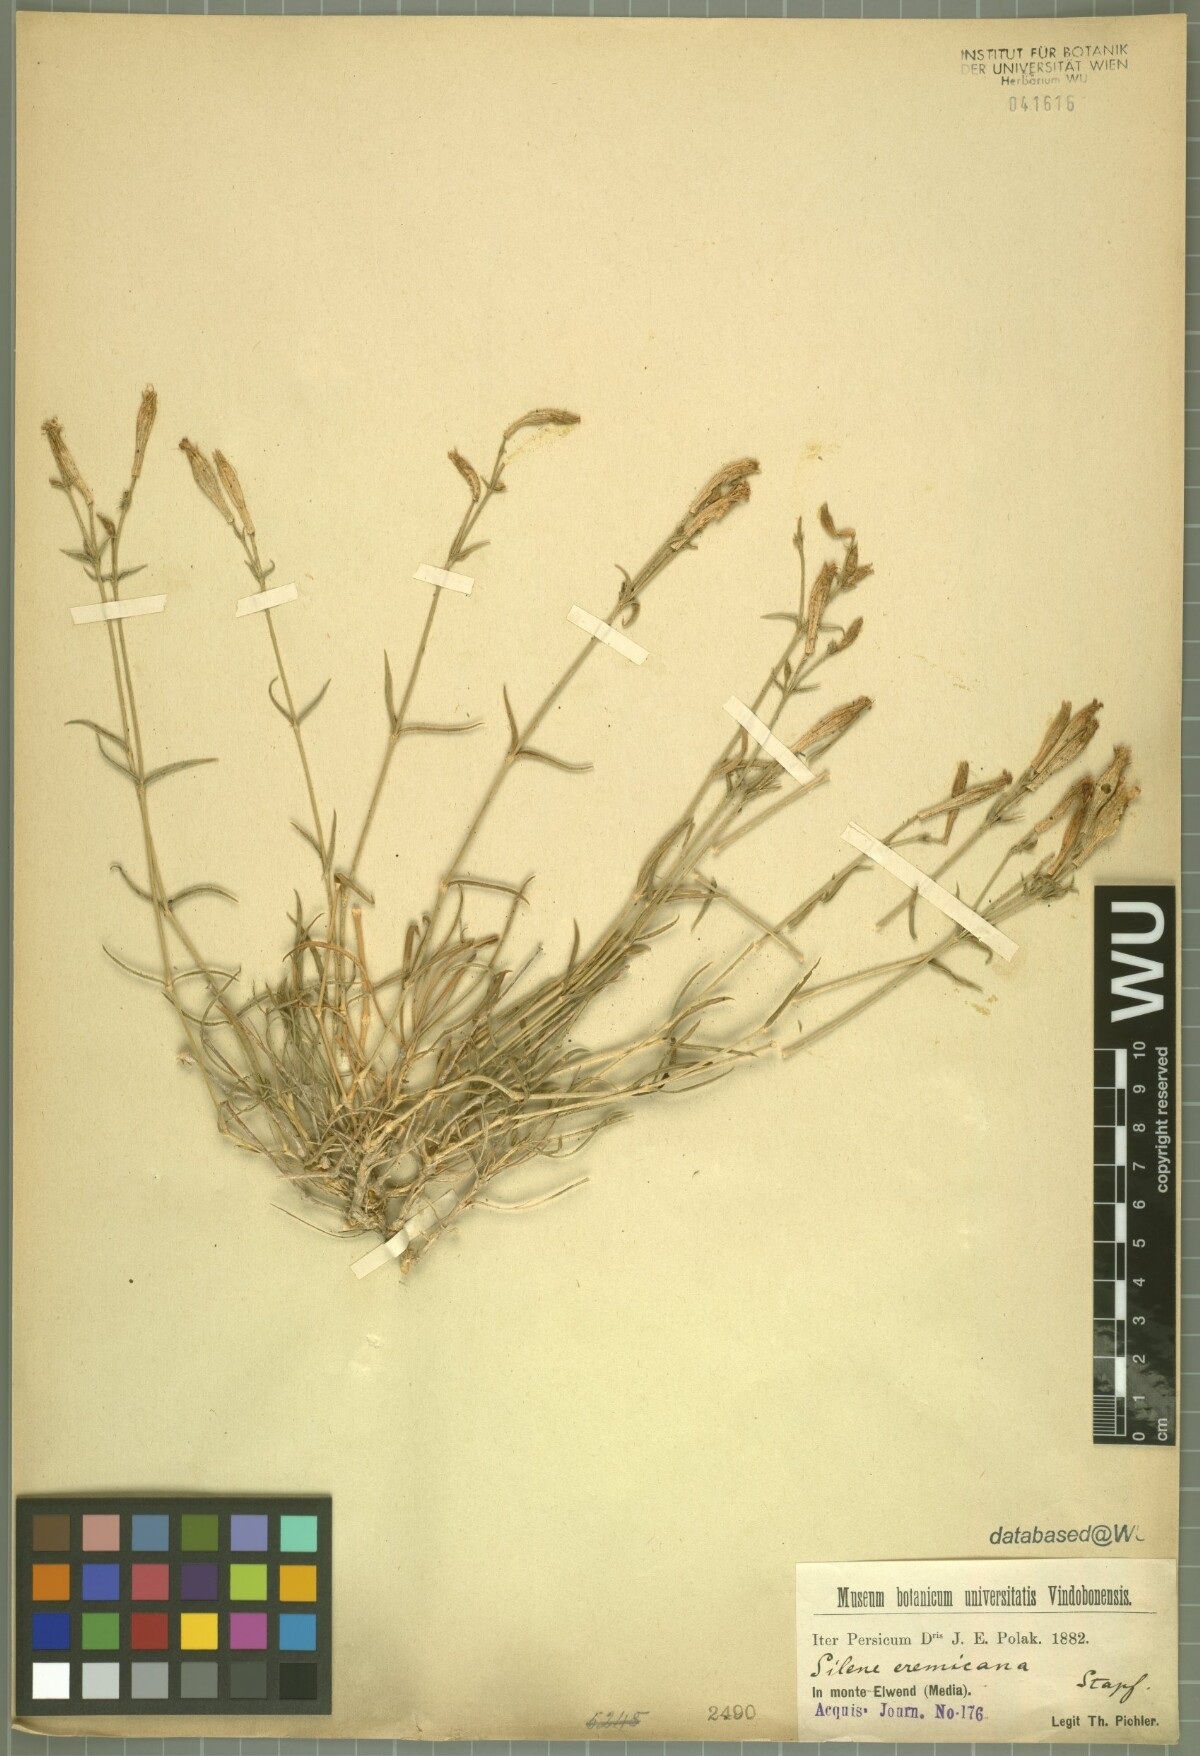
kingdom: Plantae
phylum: Tracheophyta
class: Magnoliopsida
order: Caryophyllales
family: Caryophyllaceae
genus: Silene
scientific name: Silene goniocaula
